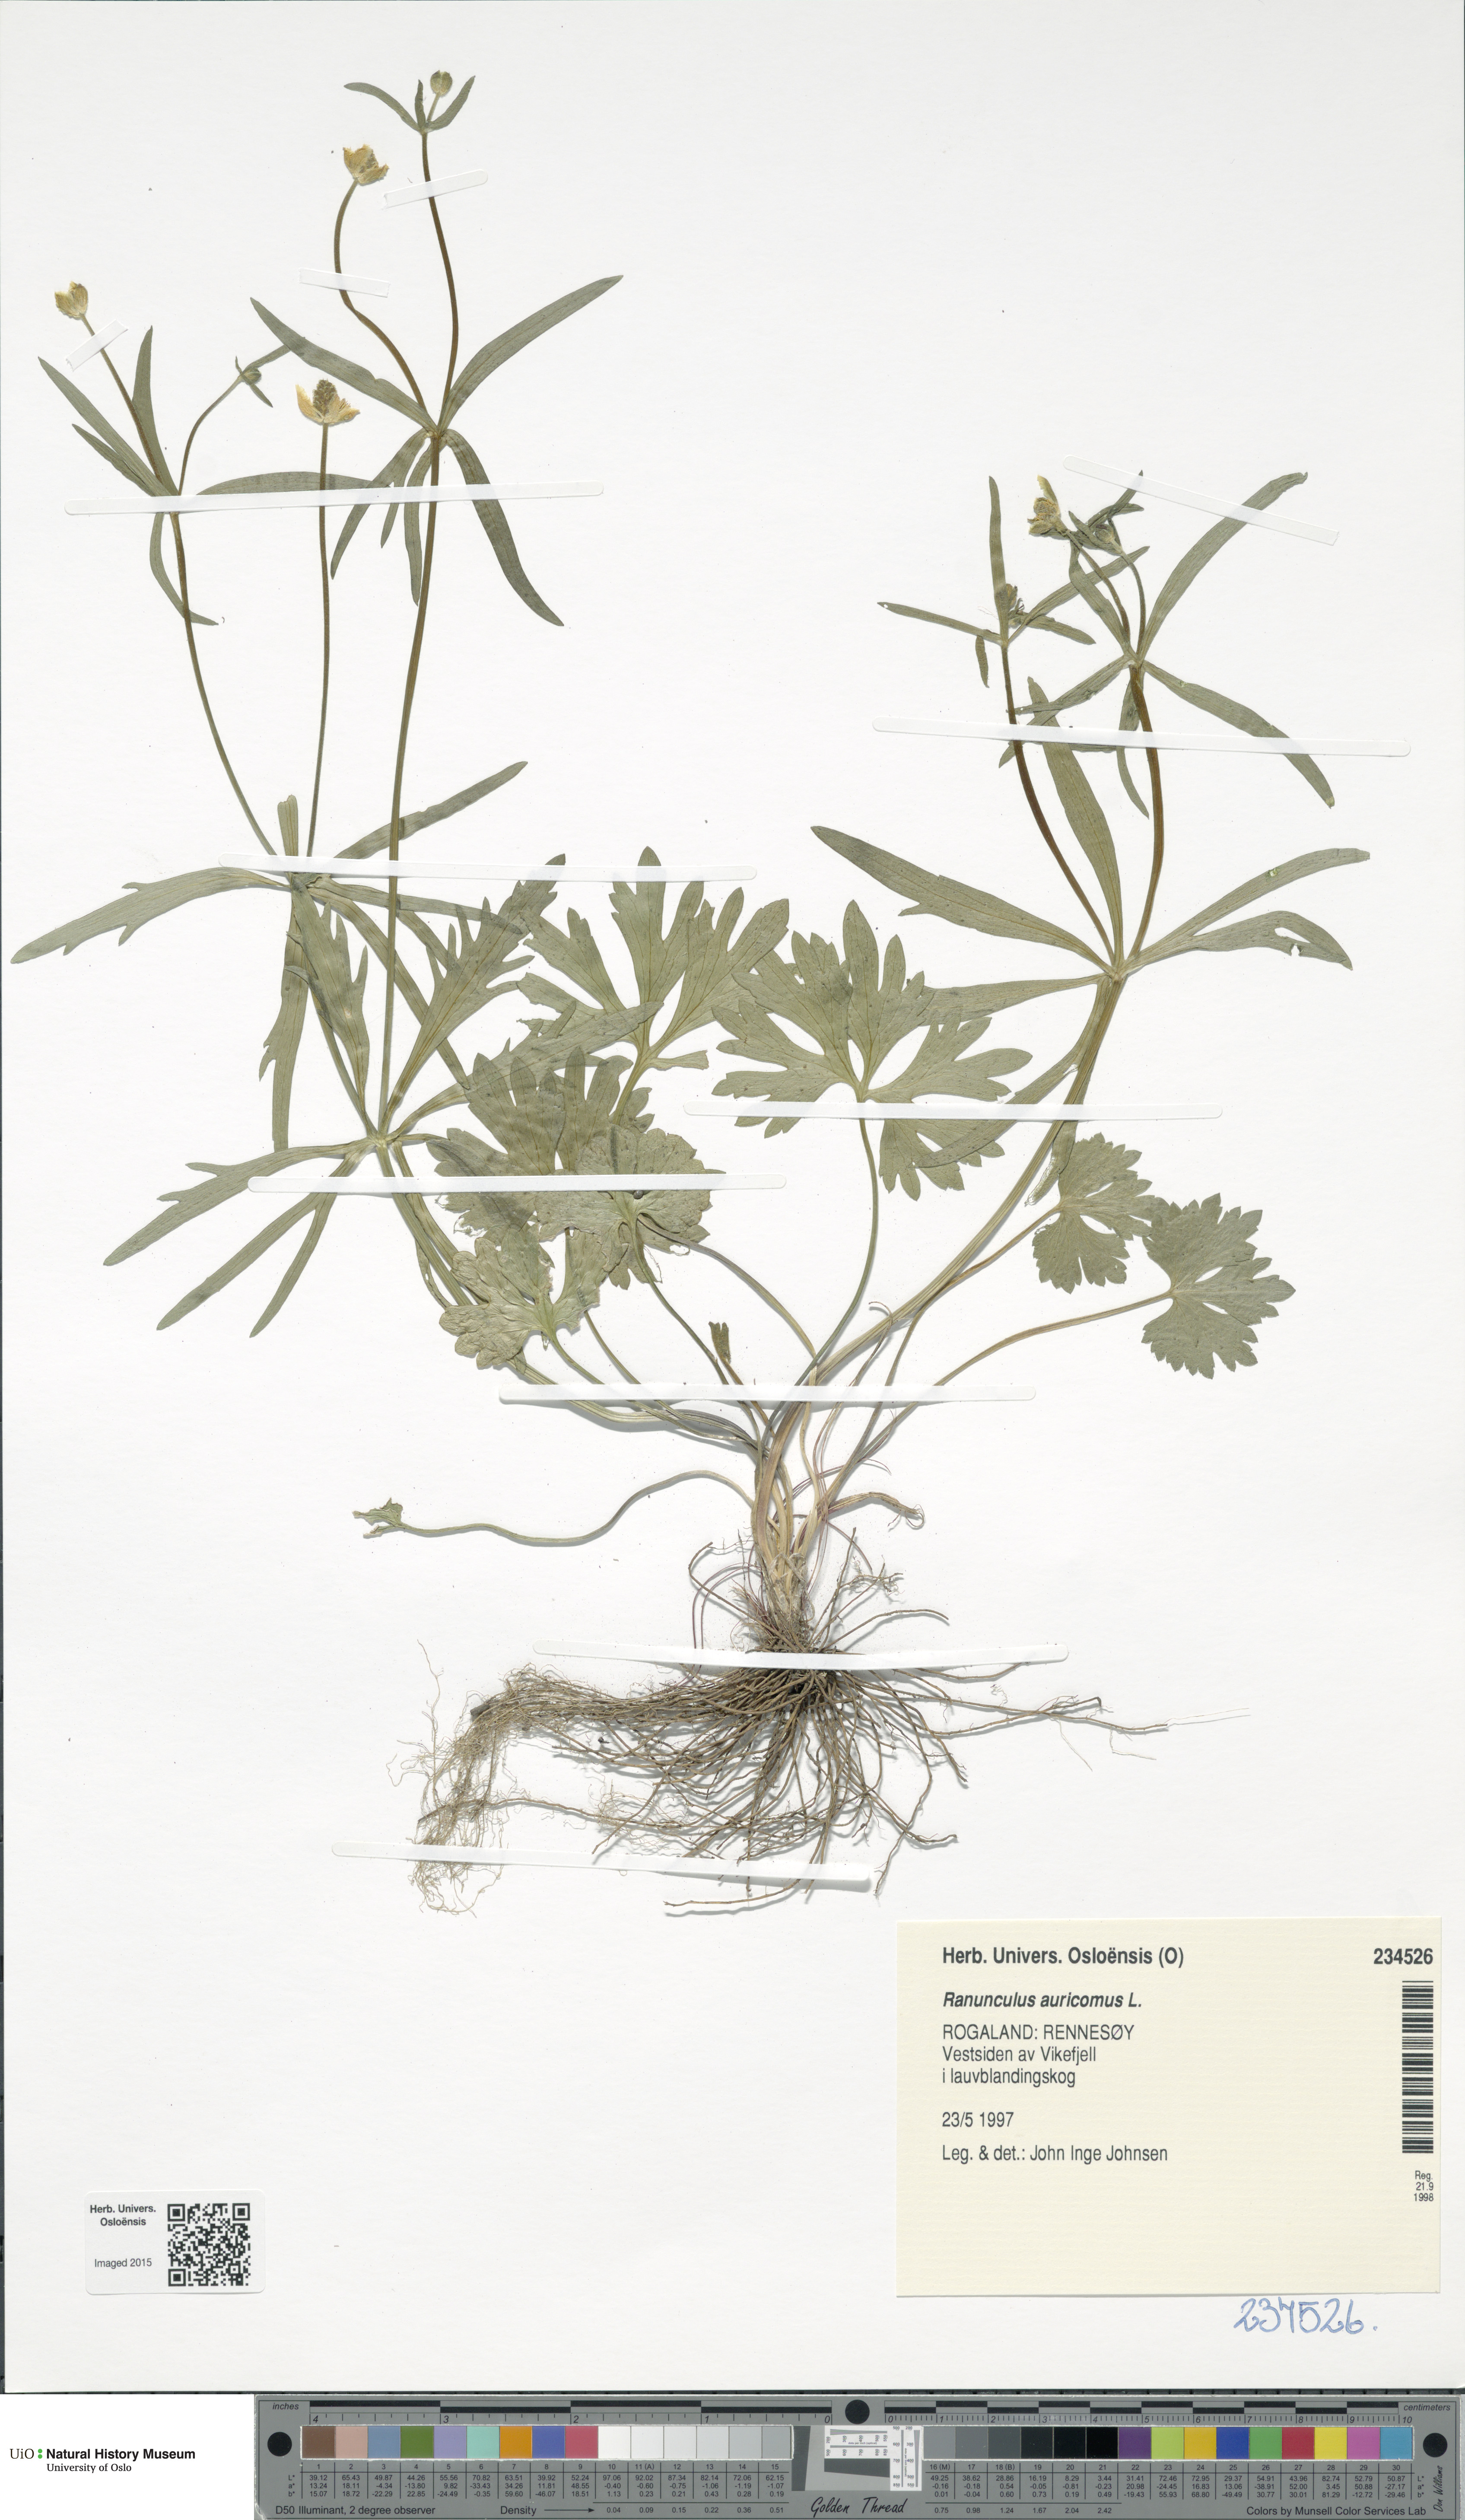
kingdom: Plantae
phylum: Tracheophyta
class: Magnoliopsida
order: Ranunculales
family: Ranunculaceae
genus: Ranunculus
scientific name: Ranunculus auricomus
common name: Goldilocks buttercup
